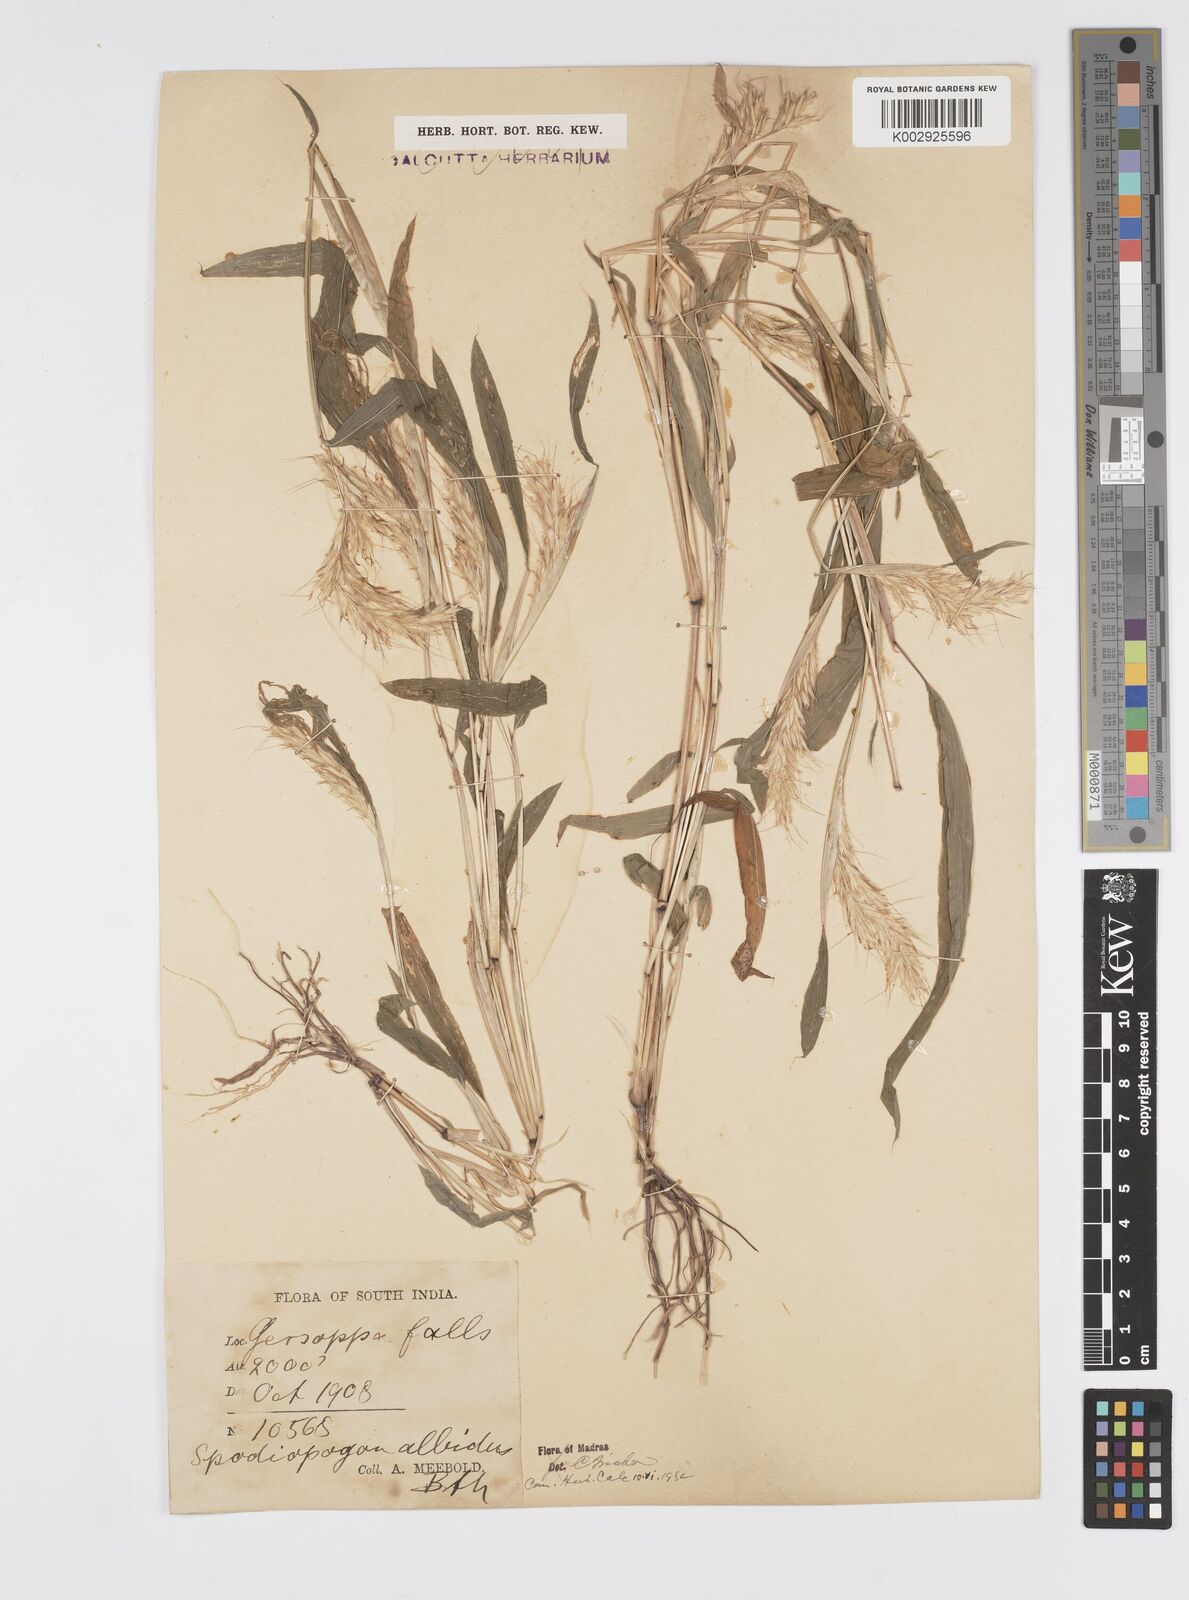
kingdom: Plantae
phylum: Tracheophyta
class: Liliopsida
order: Poales
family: Poaceae
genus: Spodiopogon
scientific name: Spodiopogon rhizophorus
